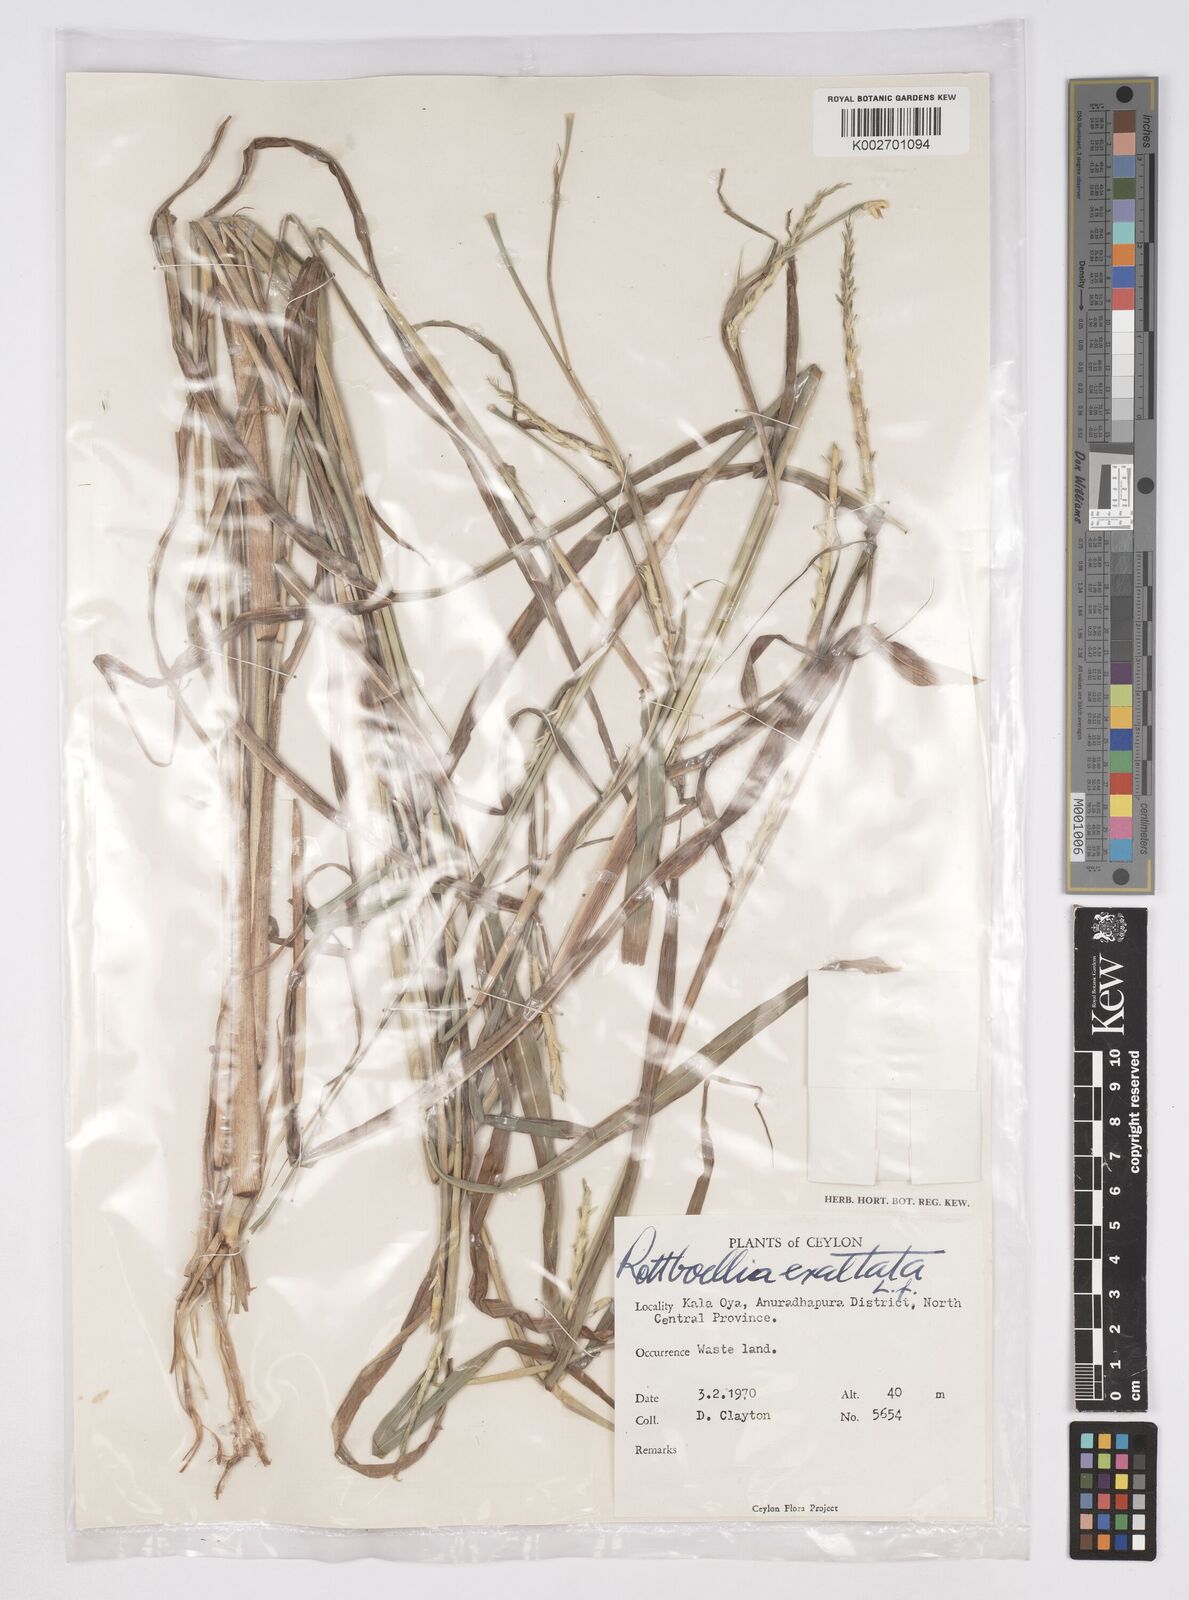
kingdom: Plantae
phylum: Tracheophyta
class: Liliopsida
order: Poales
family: Poaceae
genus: Ophiuros
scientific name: Ophiuros exaltatus
